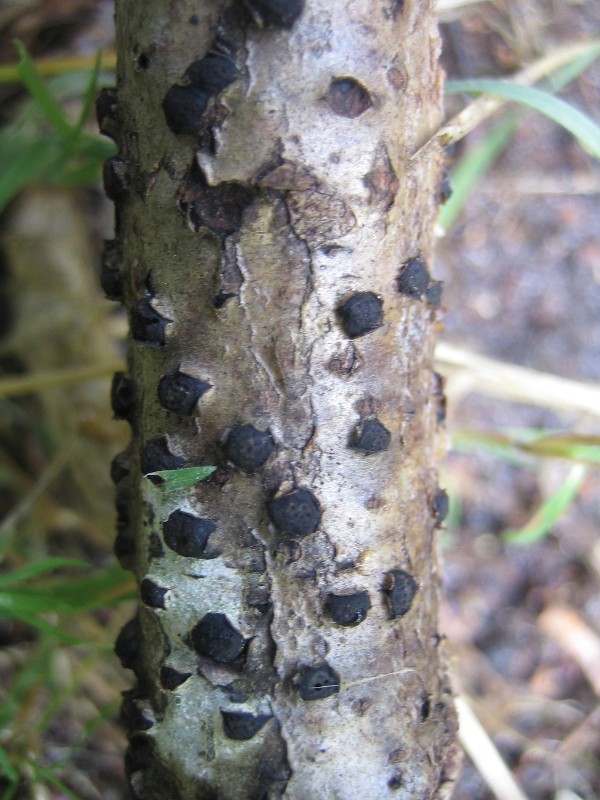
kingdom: Fungi
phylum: Ascomycota
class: Sordariomycetes
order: Xylariales
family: Diatrypaceae
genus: Diatrypella
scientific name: Diatrypella
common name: kulskorpe
